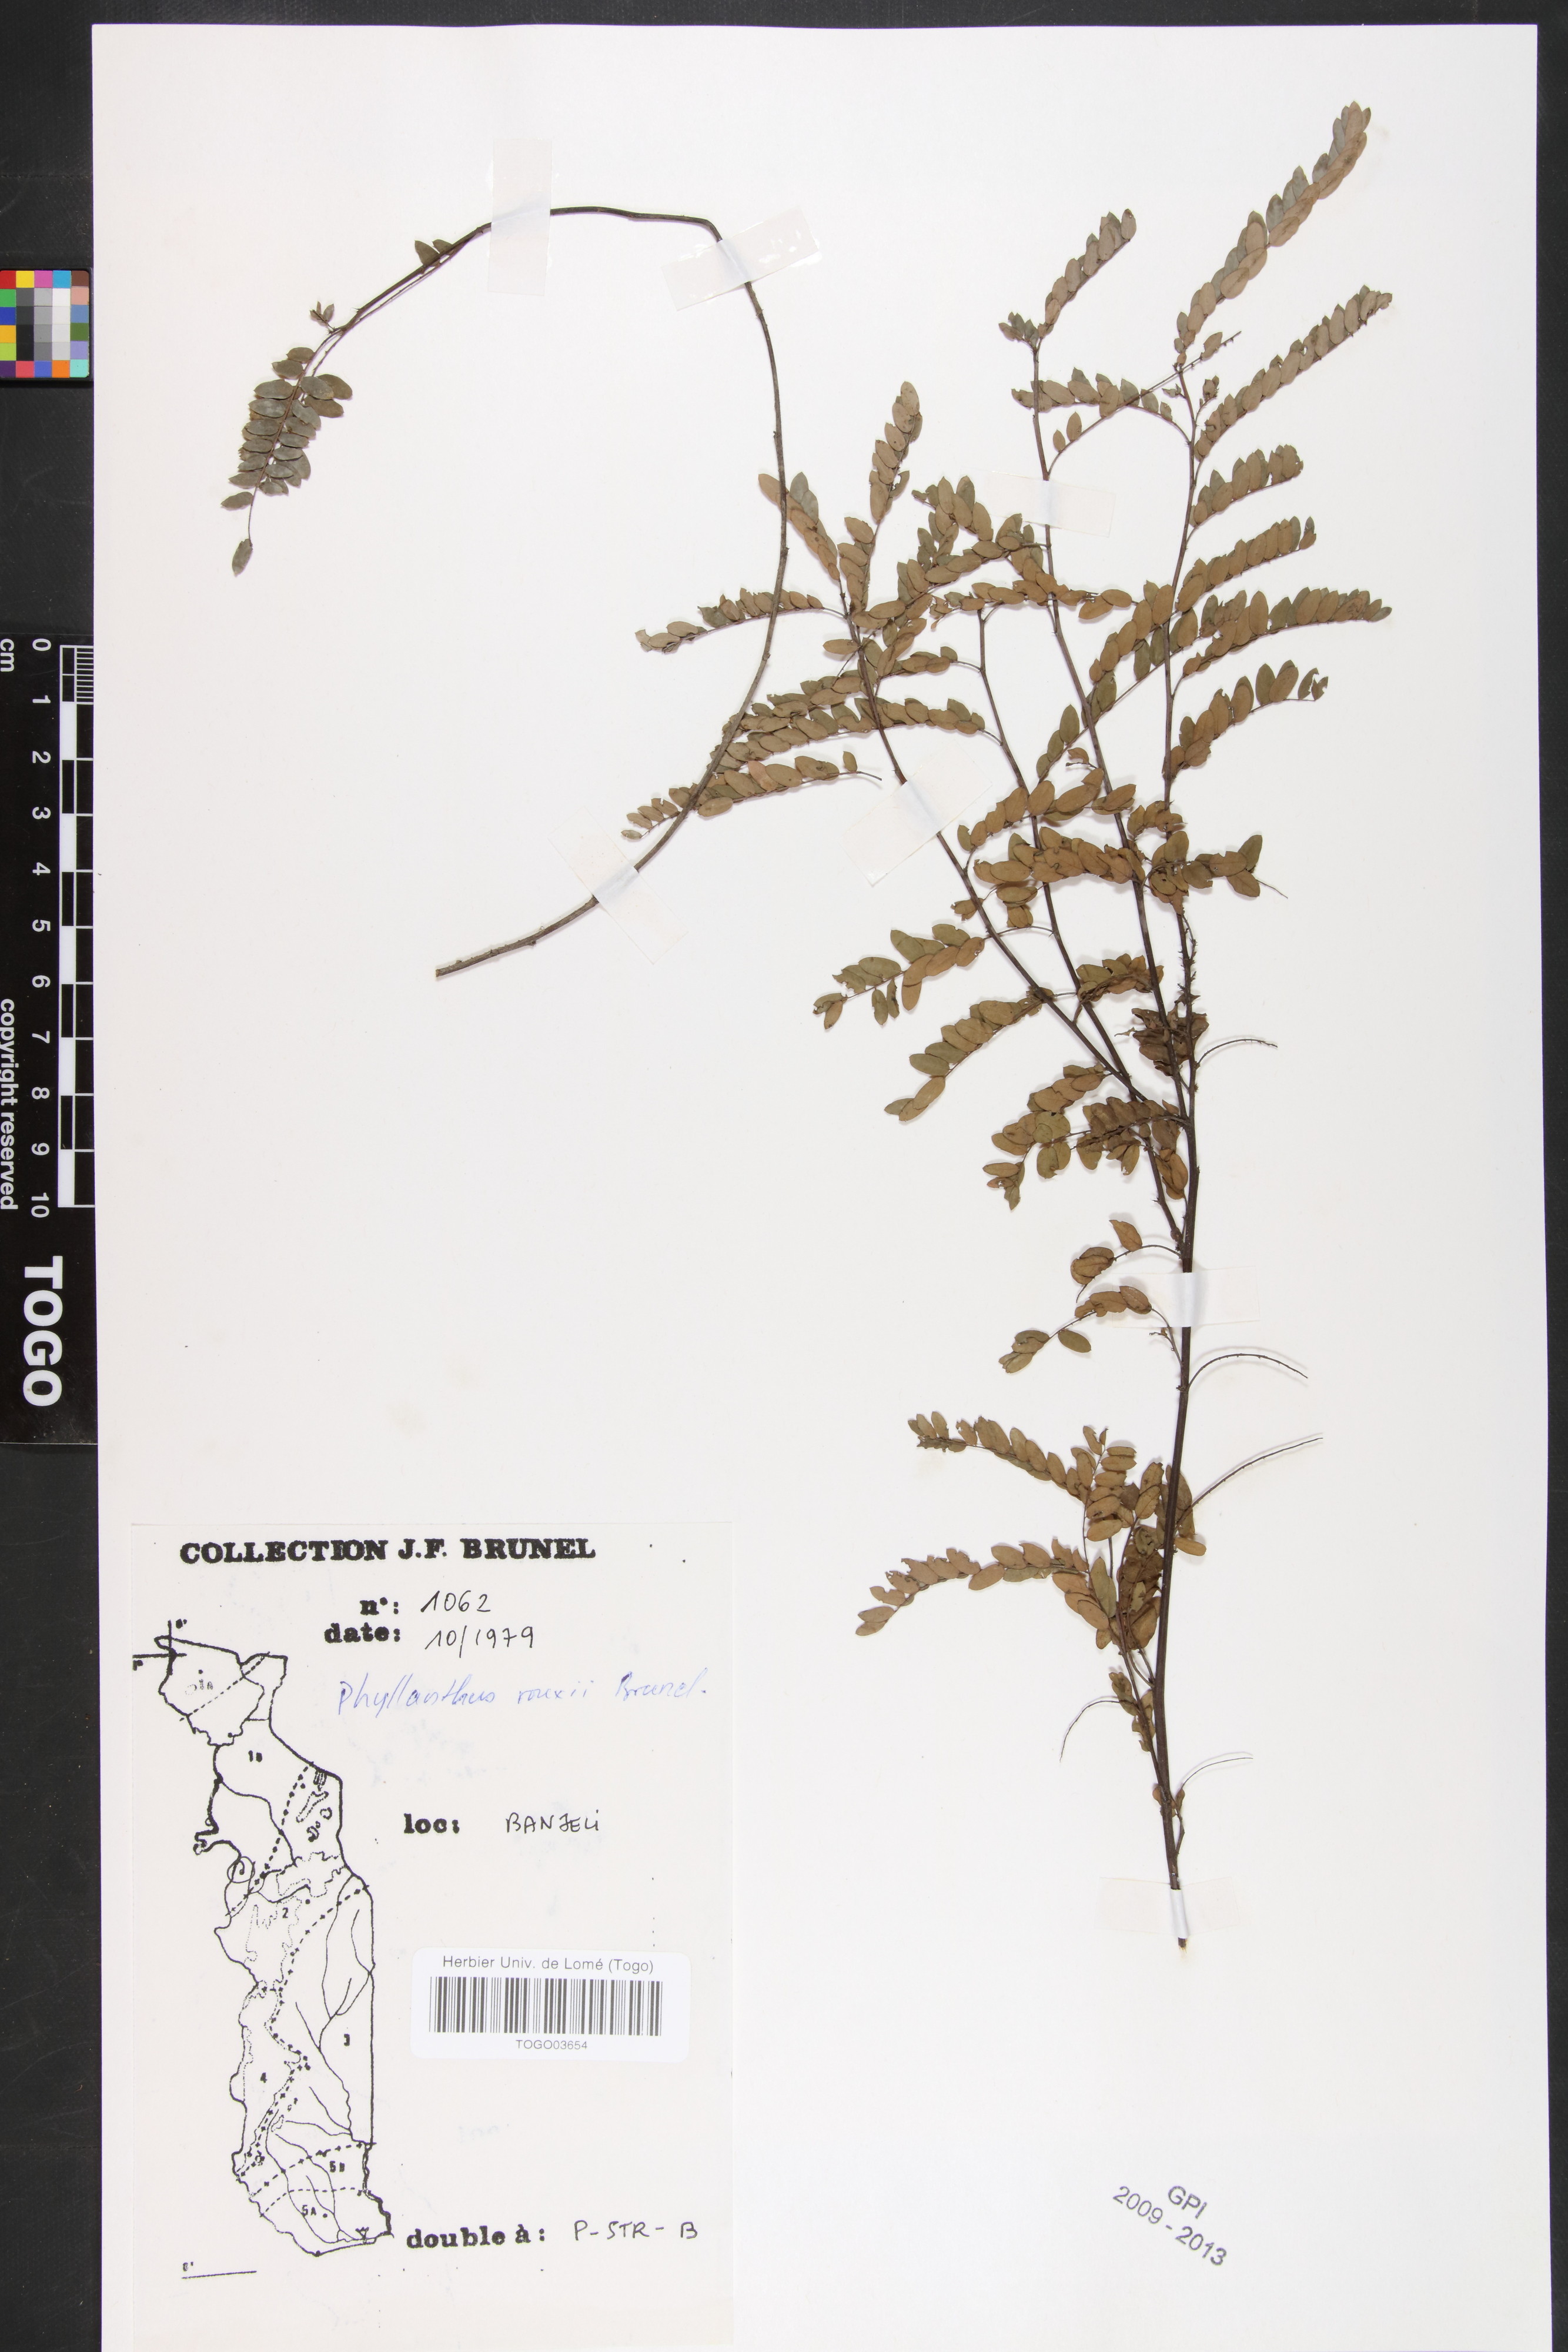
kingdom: Plantae
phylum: Tracheophyta
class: Magnoliopsida
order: Malpighiales
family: Phyllanthaceae
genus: Phyllanthus
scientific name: Phyllanthus rouxii
